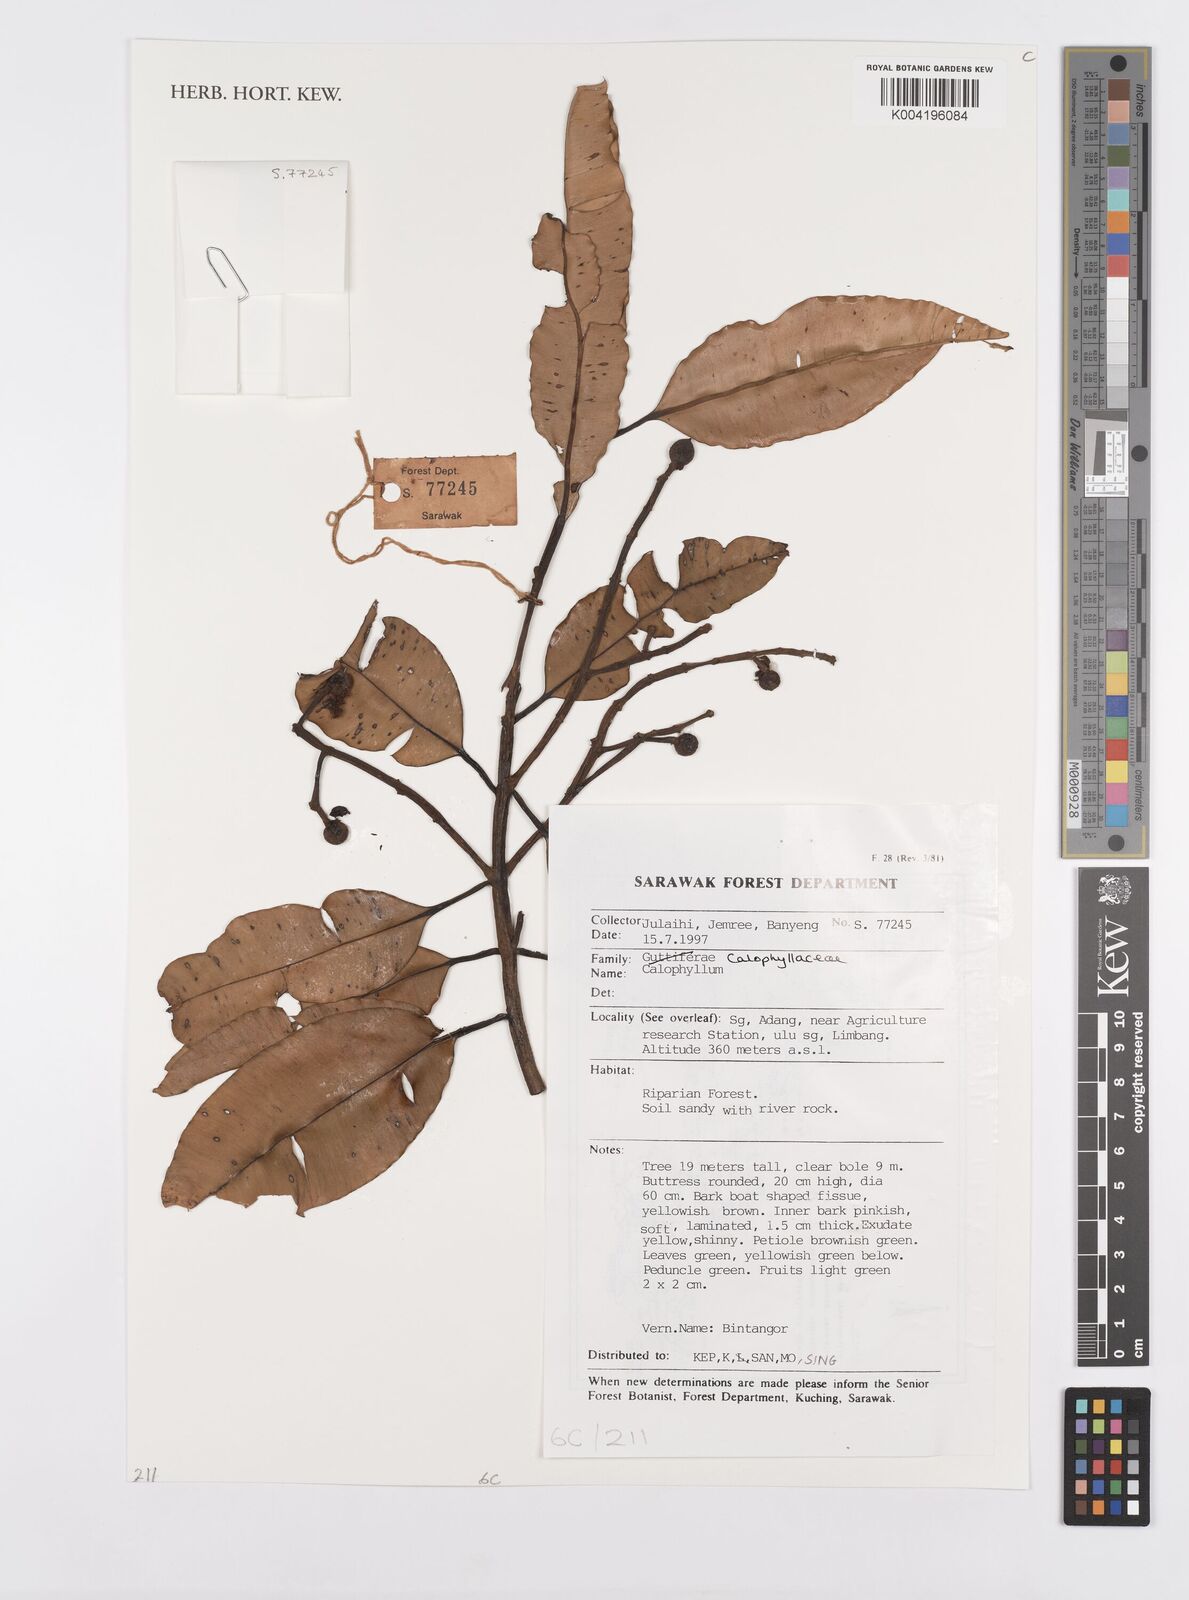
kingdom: Plantae
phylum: Tracheophyta
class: Magnoliopsida
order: Malpighiales
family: Calophyllaceae
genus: Calophyllum
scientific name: Calophyllum
